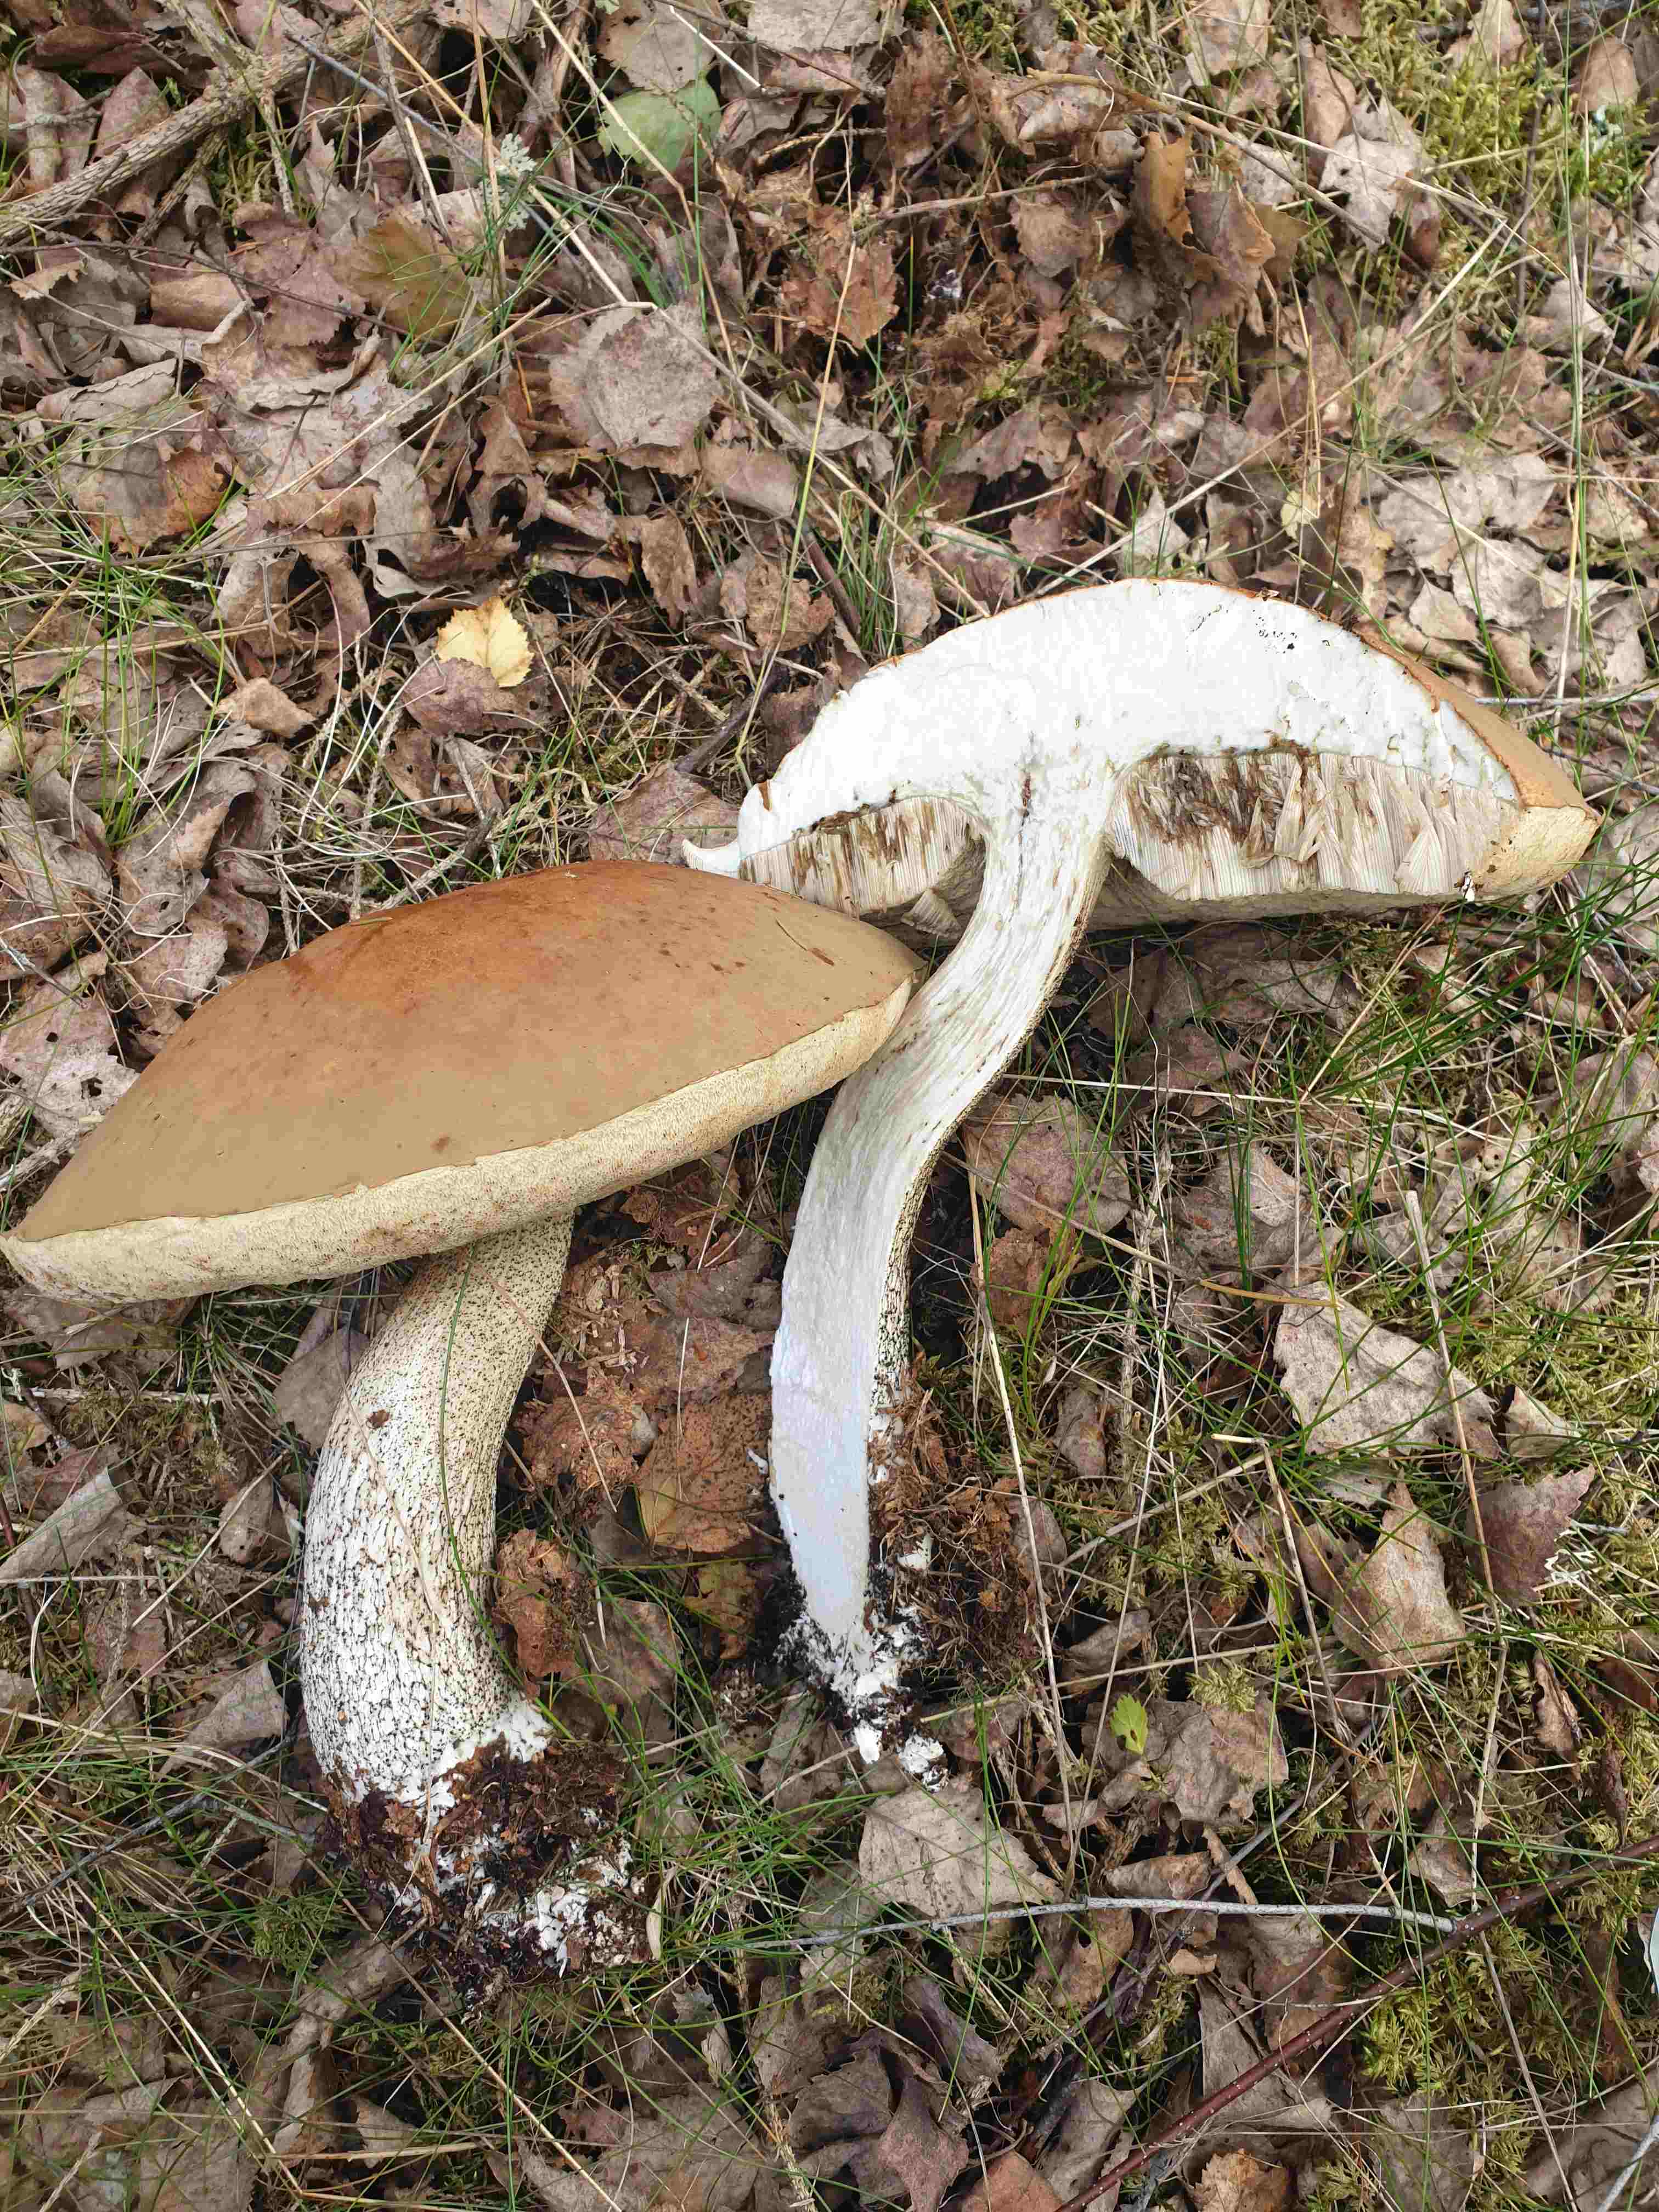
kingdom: Fungi
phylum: Basidiomycota
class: Agaricomycetes
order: Boletales
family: Boletaceae
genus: Leccinum
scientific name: Leccinum
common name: skælrørhat
